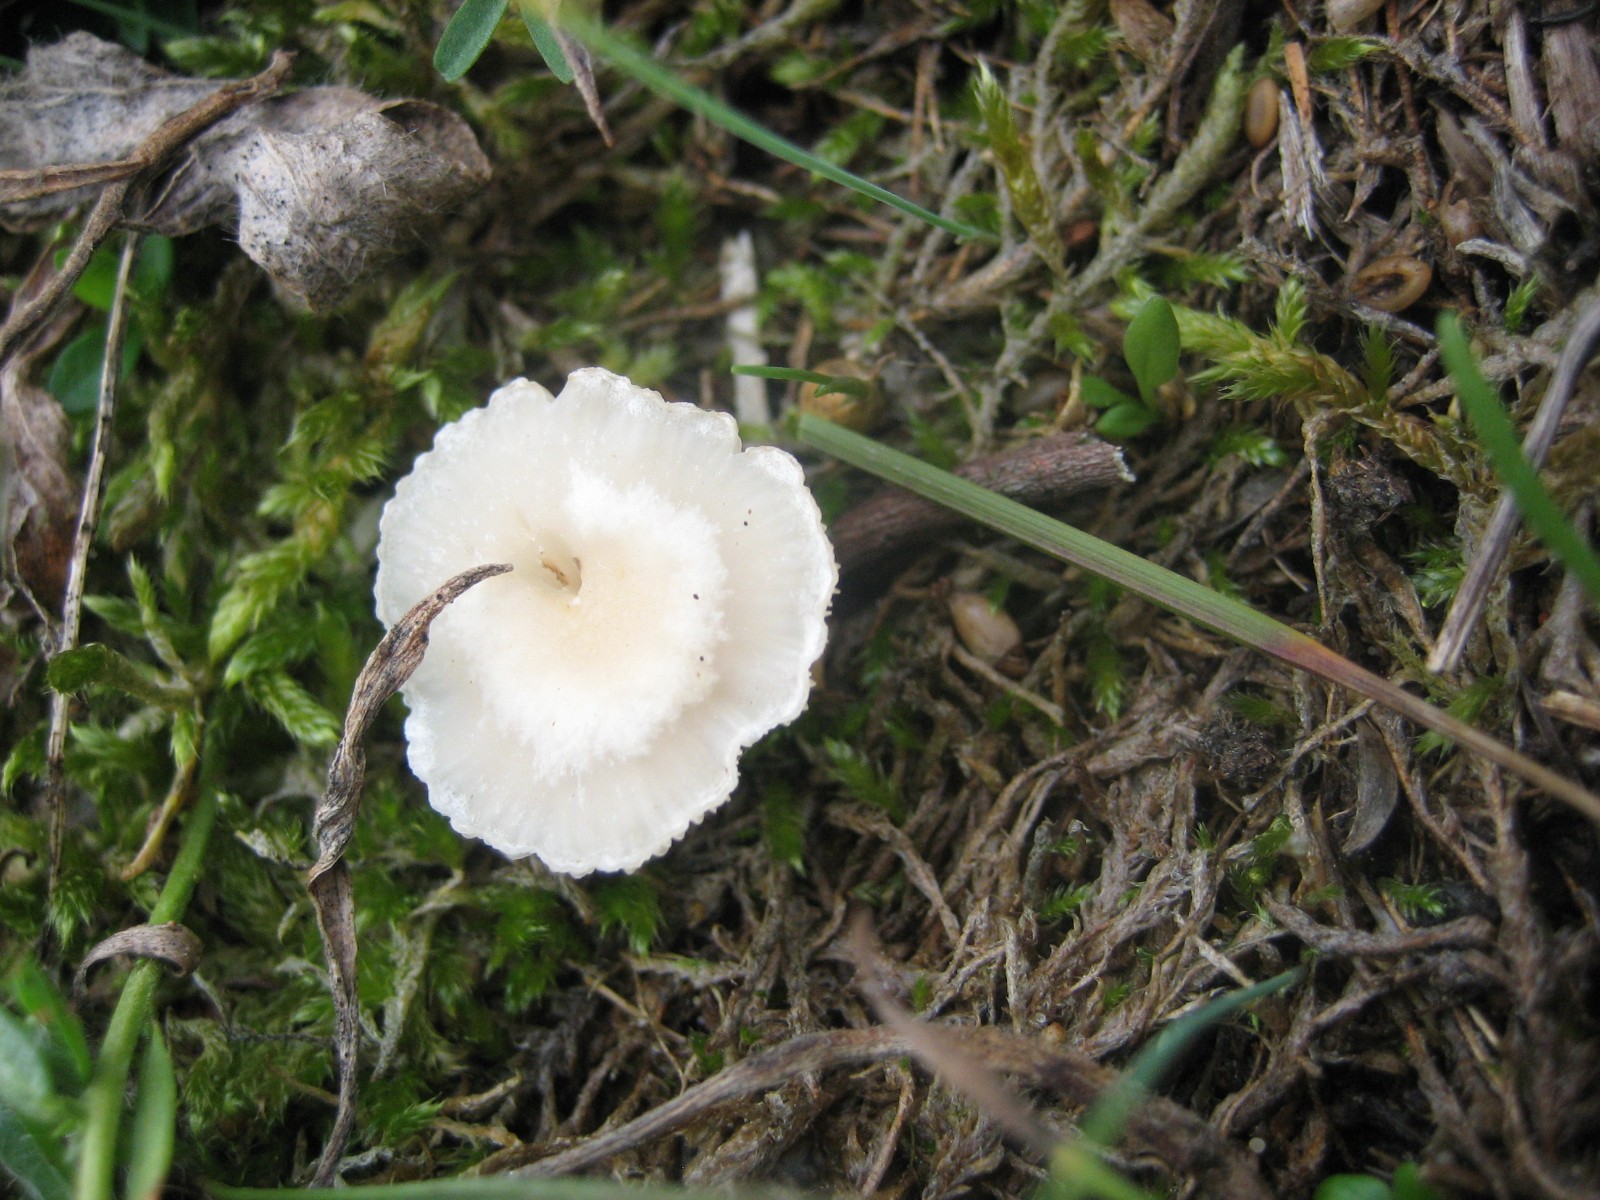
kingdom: Fungi
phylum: Basidiomycota
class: Agaricomycetes
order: Agaricales
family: Tricholomataceae
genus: Clitocybe
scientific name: Clitocybe
